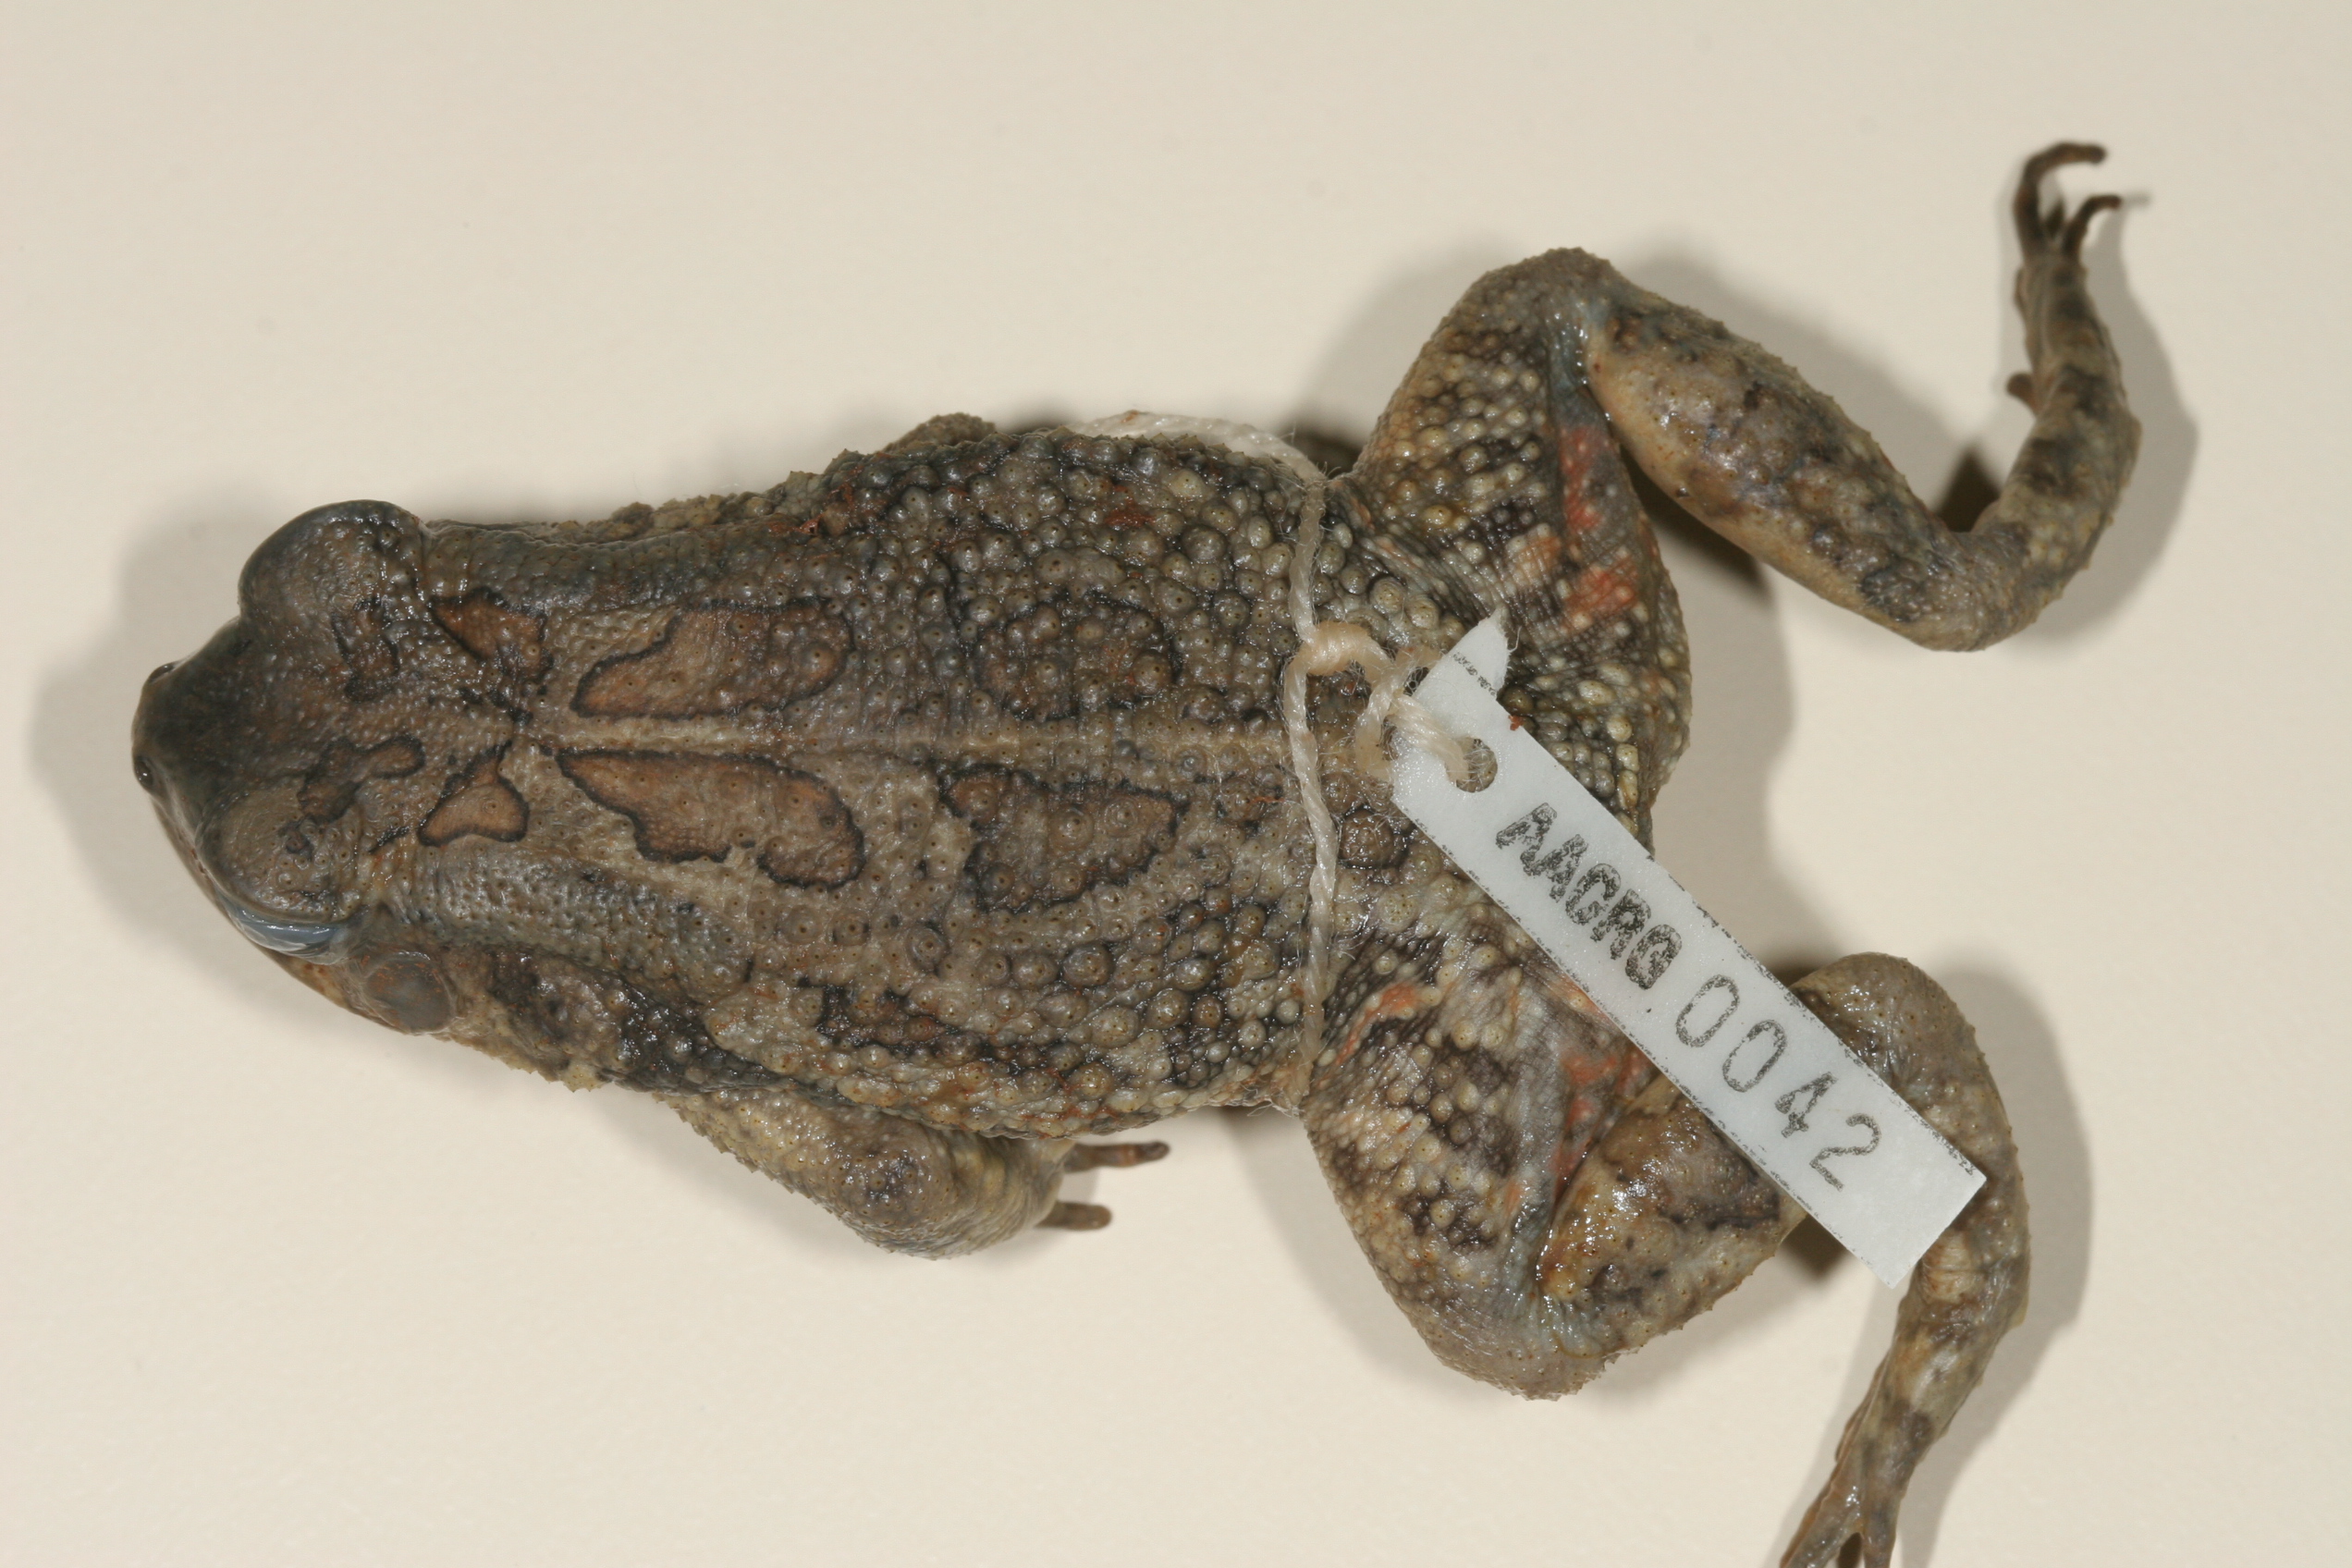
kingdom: Animalia
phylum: Chordata
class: Amphibia
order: Anura
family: Bufonidae
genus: Sclerophrys
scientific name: Sclerophrys garmani
